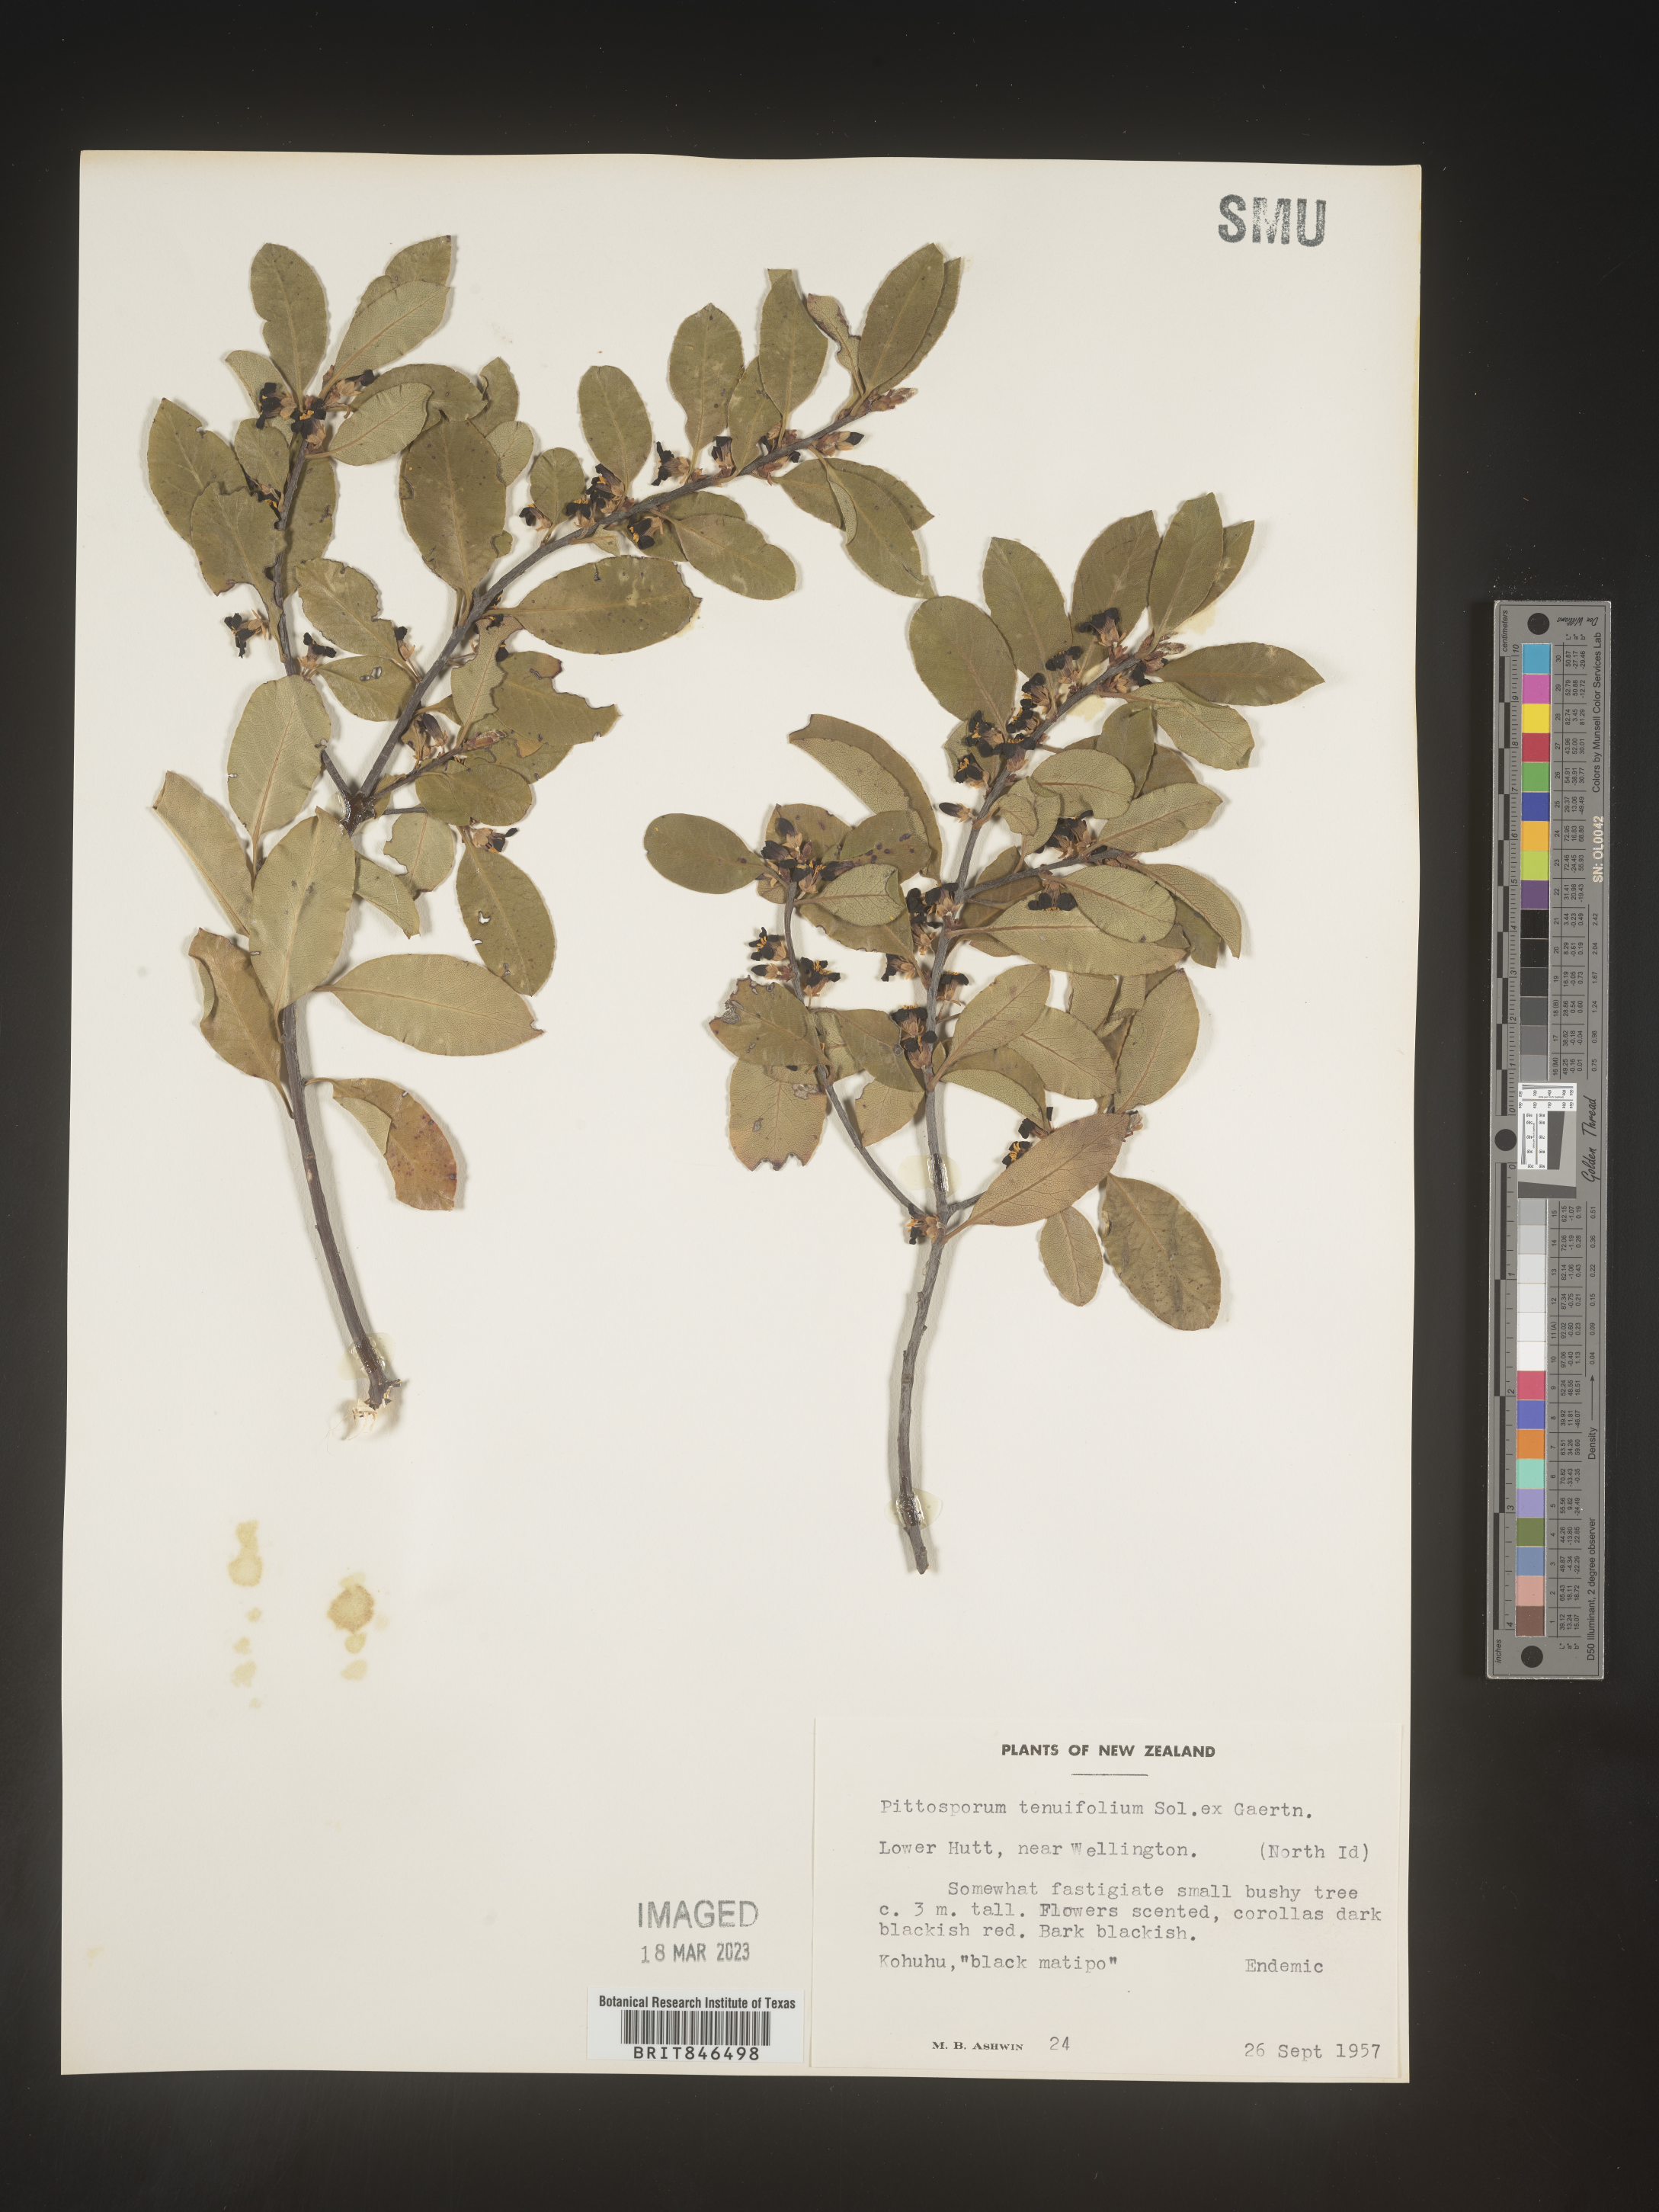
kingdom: Plantae
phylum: Tracheophyta
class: Magnoliopsida
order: Apiales
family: Pittosporaceae
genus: Pittosporum
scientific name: Pittosporum
